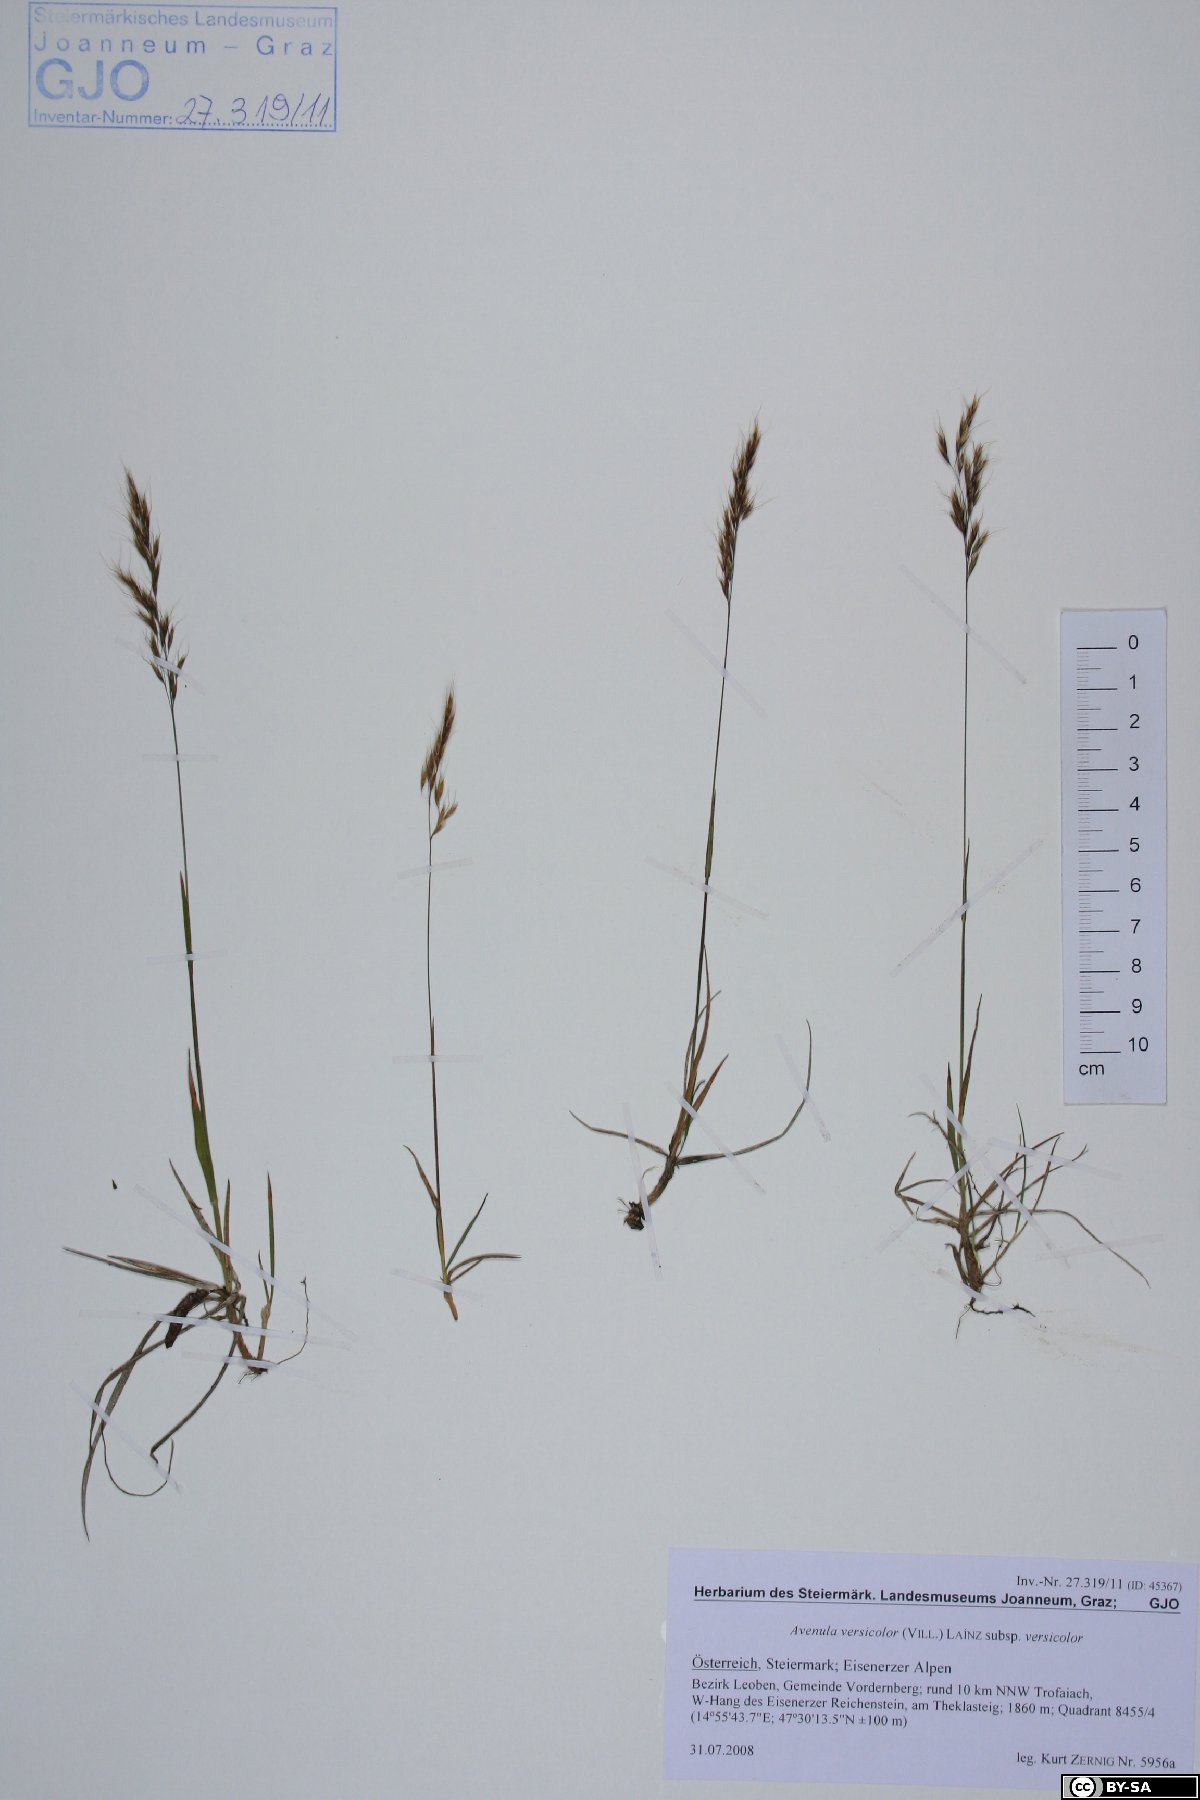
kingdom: Plantae
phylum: Tracheophyta
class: Liliopsida
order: Poales
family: Poaceae
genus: Helictochloa
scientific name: Helictochloa versicolor
